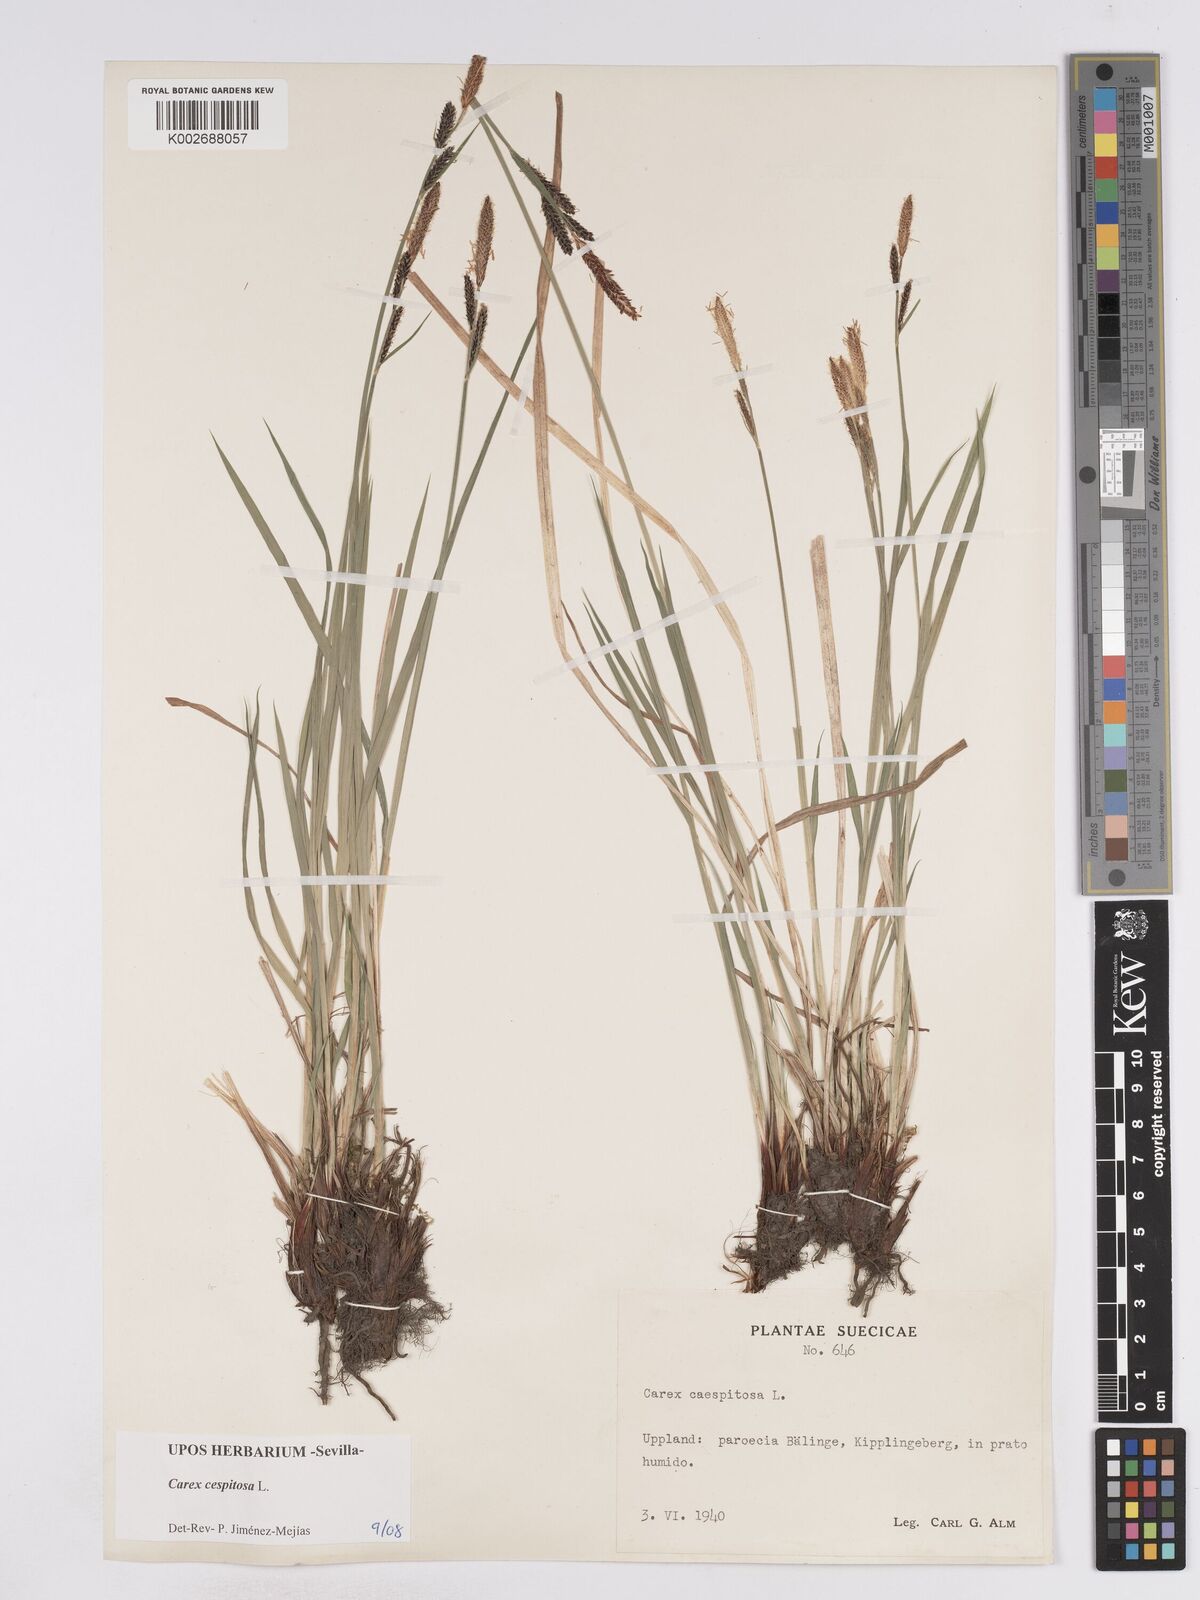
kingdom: Plantae
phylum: Tracheophyta
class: Liliopsida
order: Poales
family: Cyperaceae
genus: Carex
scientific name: Carex
